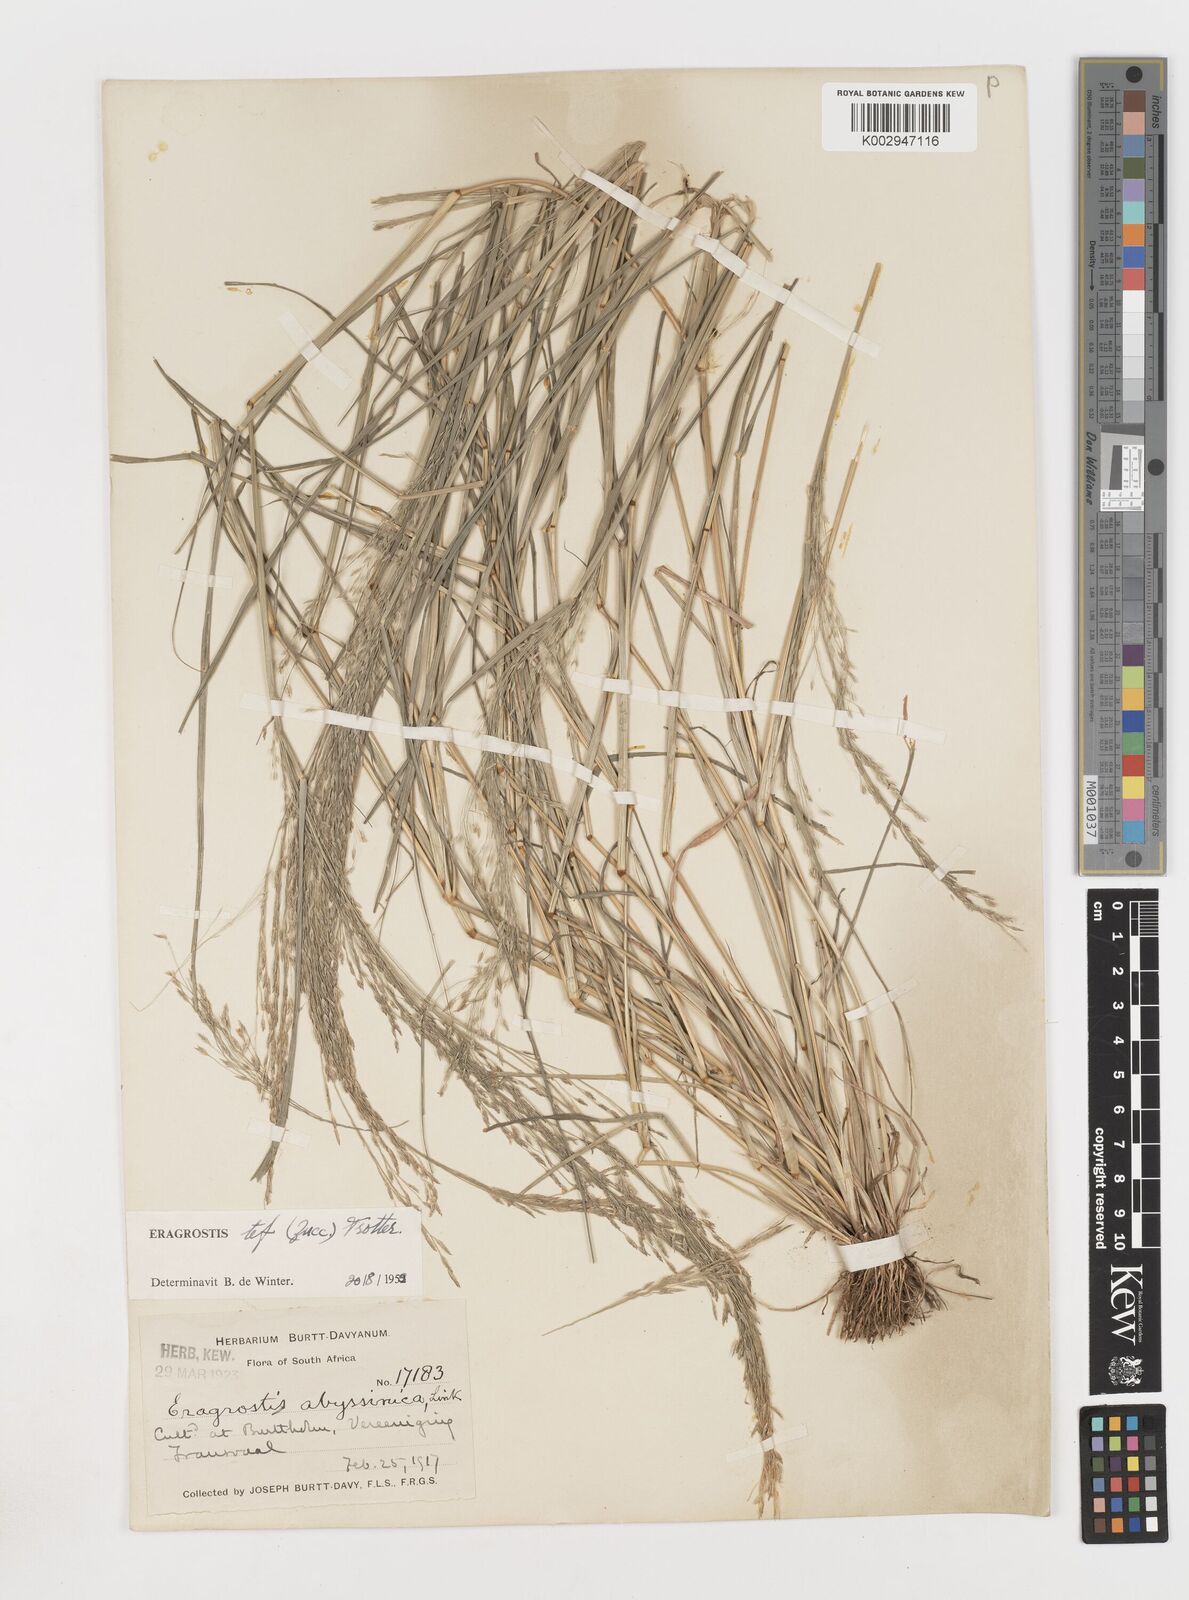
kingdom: Plantae
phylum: Tracheophyta
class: Liliopsida
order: Poales
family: Poaceae
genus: Eragrostis
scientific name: Eragrostis tef
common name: Teff
